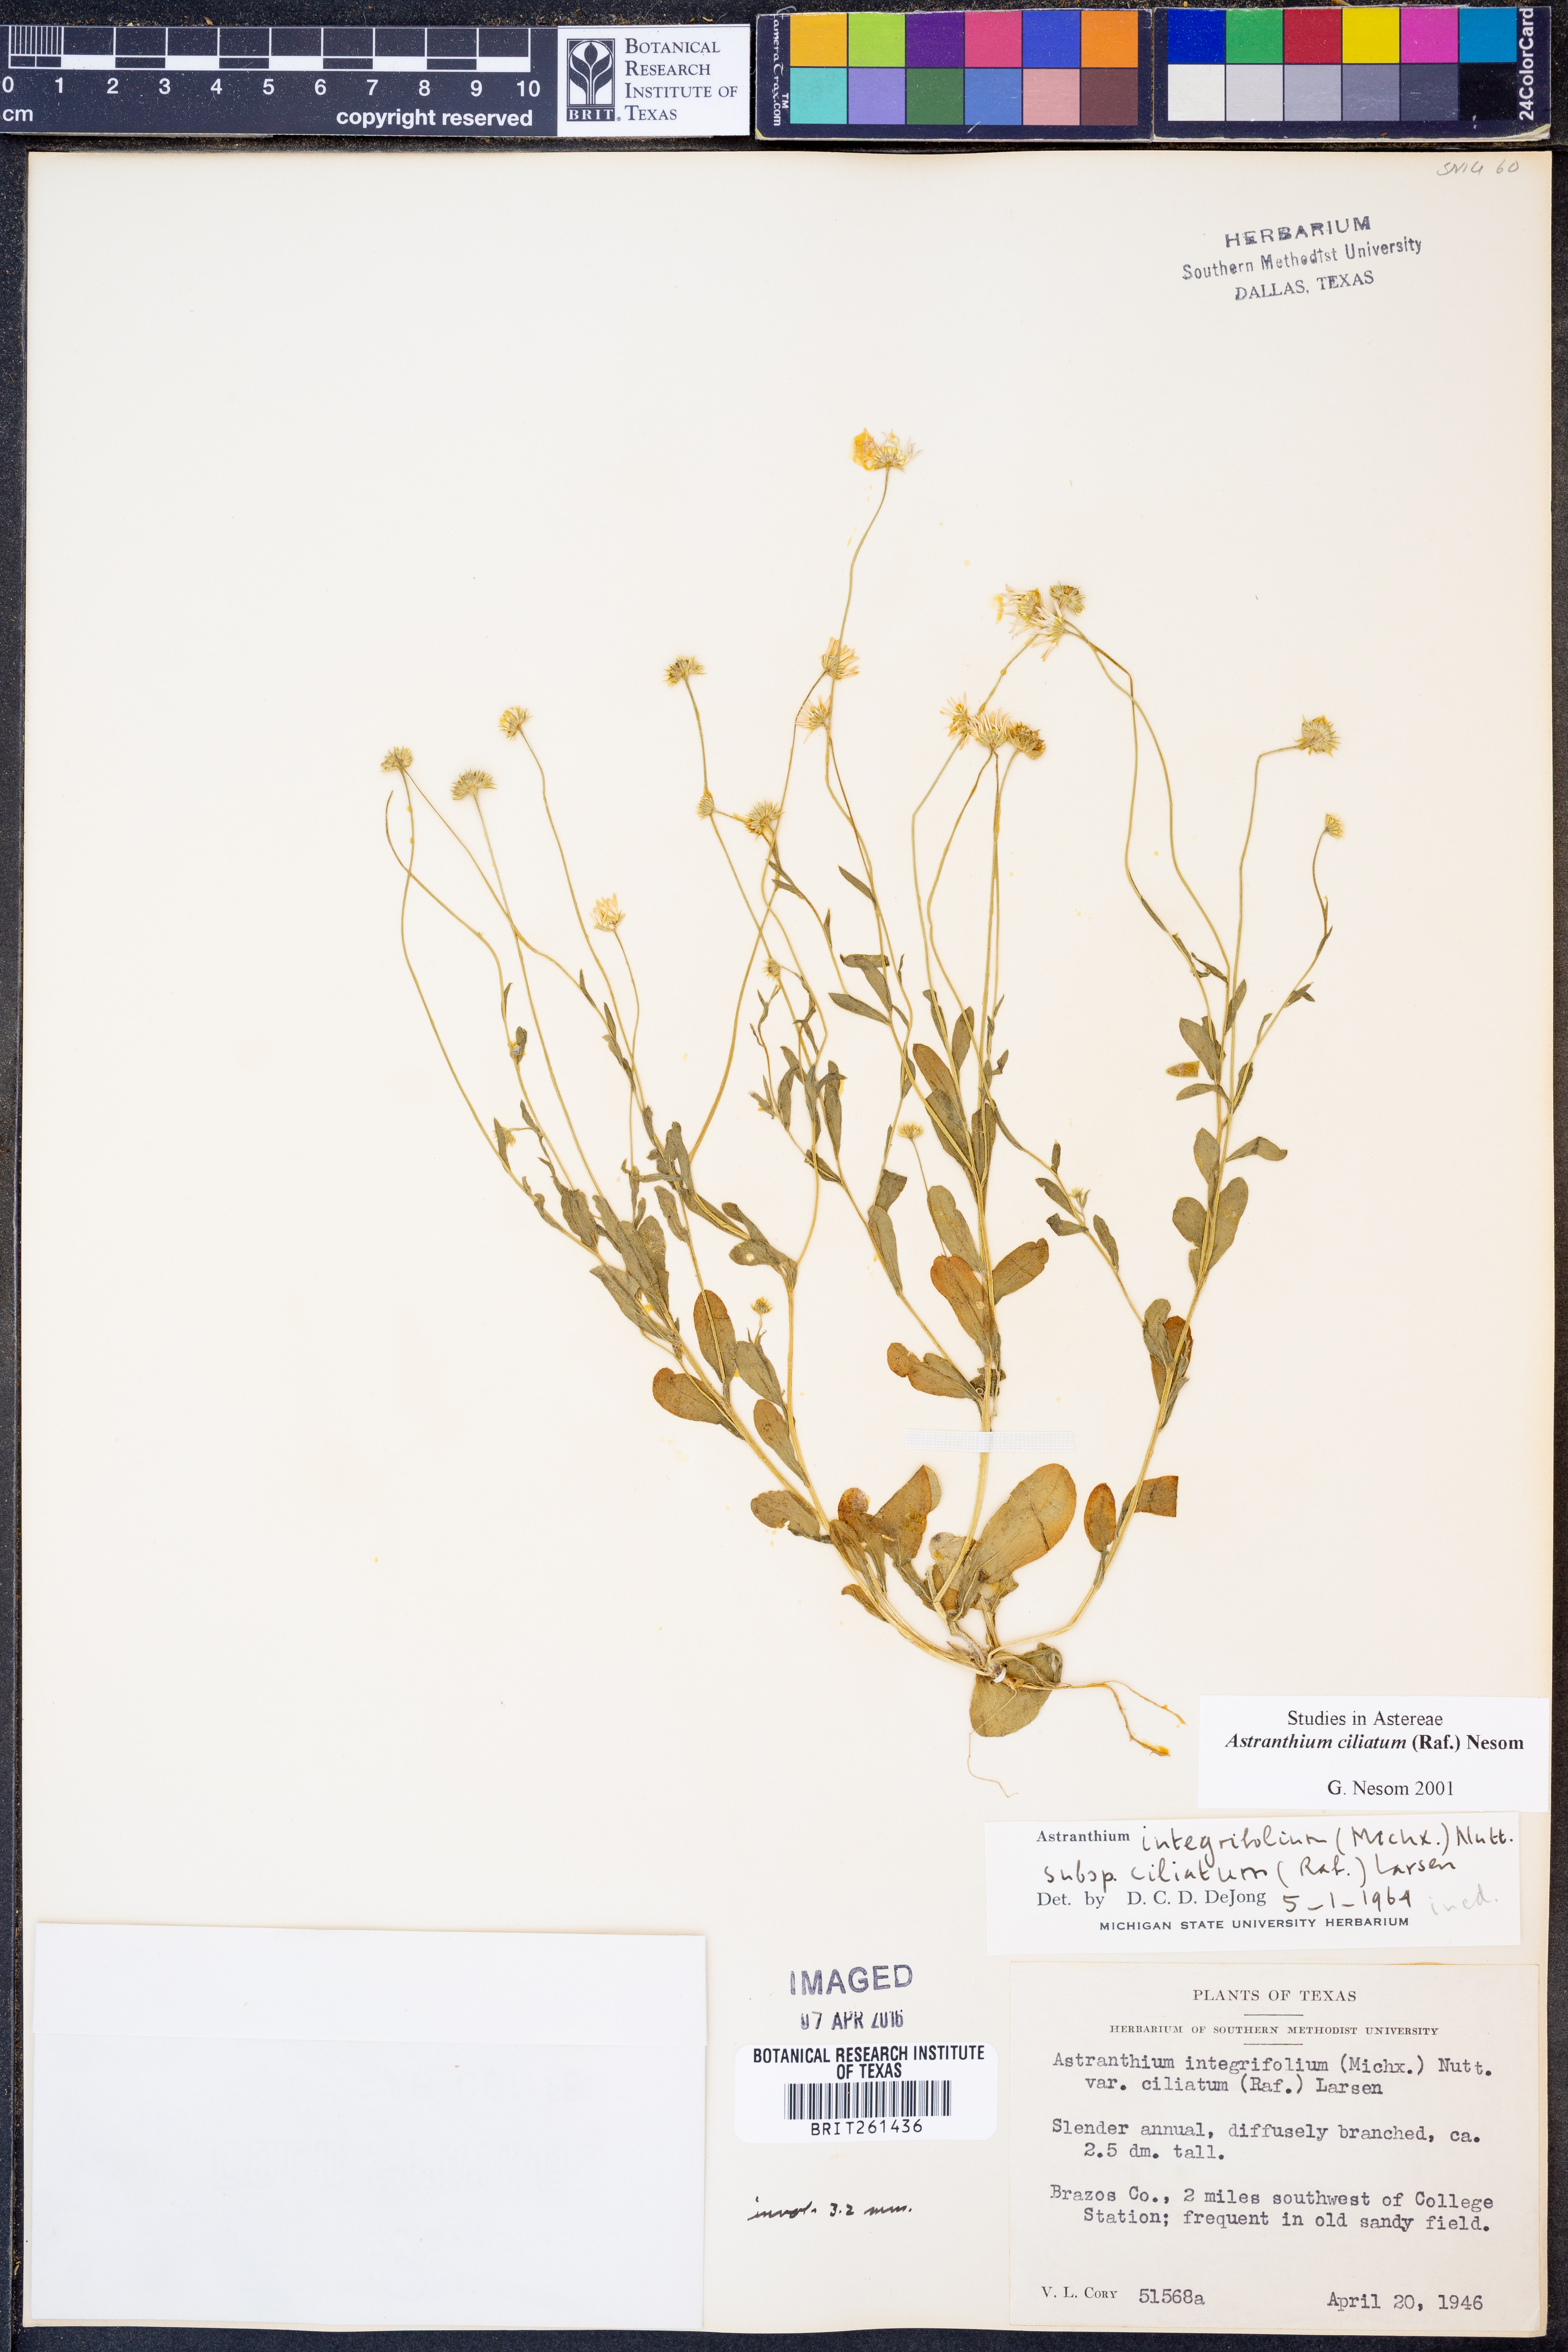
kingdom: Plantae
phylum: Tracheophyta
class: Magnoliopsida
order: Asterales
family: Asteraceae
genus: Astranthium
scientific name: Astranthium ciliatum
